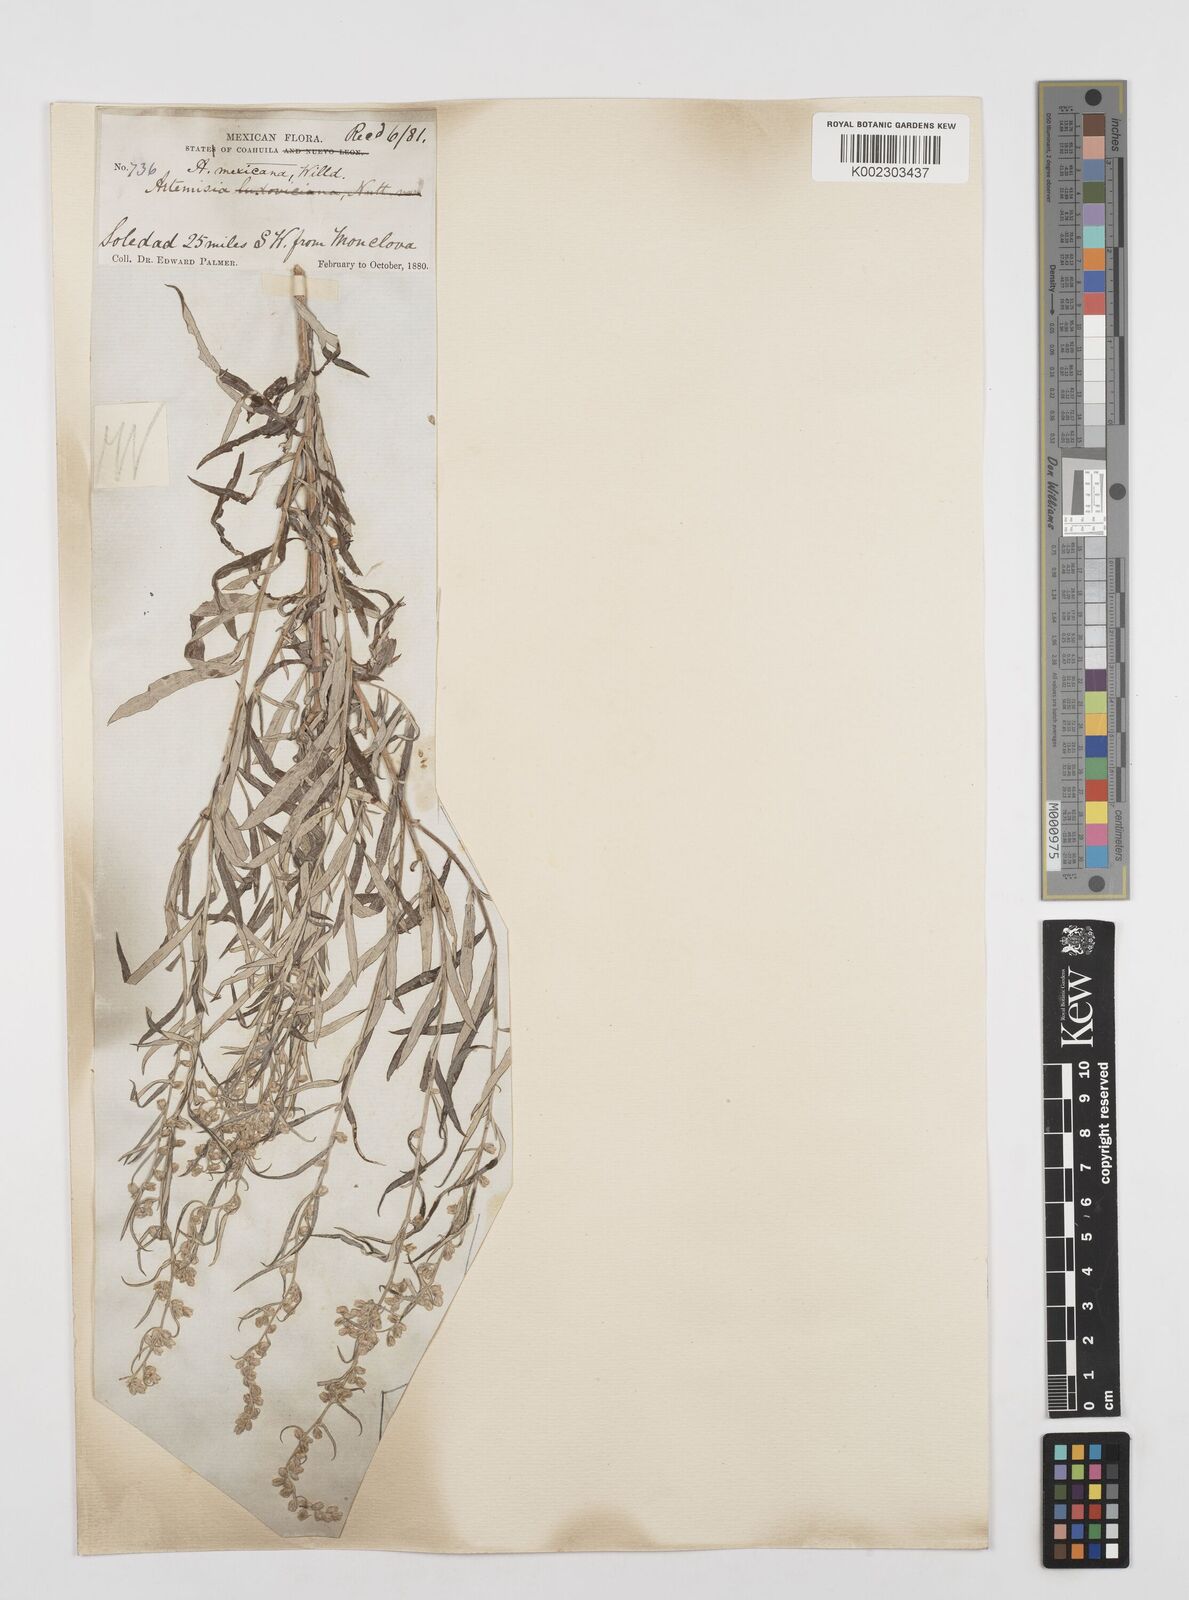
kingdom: Plantae
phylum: Tracheophyta
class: Magnoliopsida
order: Asterales
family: Asteraceae
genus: Artemisia
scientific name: Artemisia ludoviciana
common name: Western mugwort
